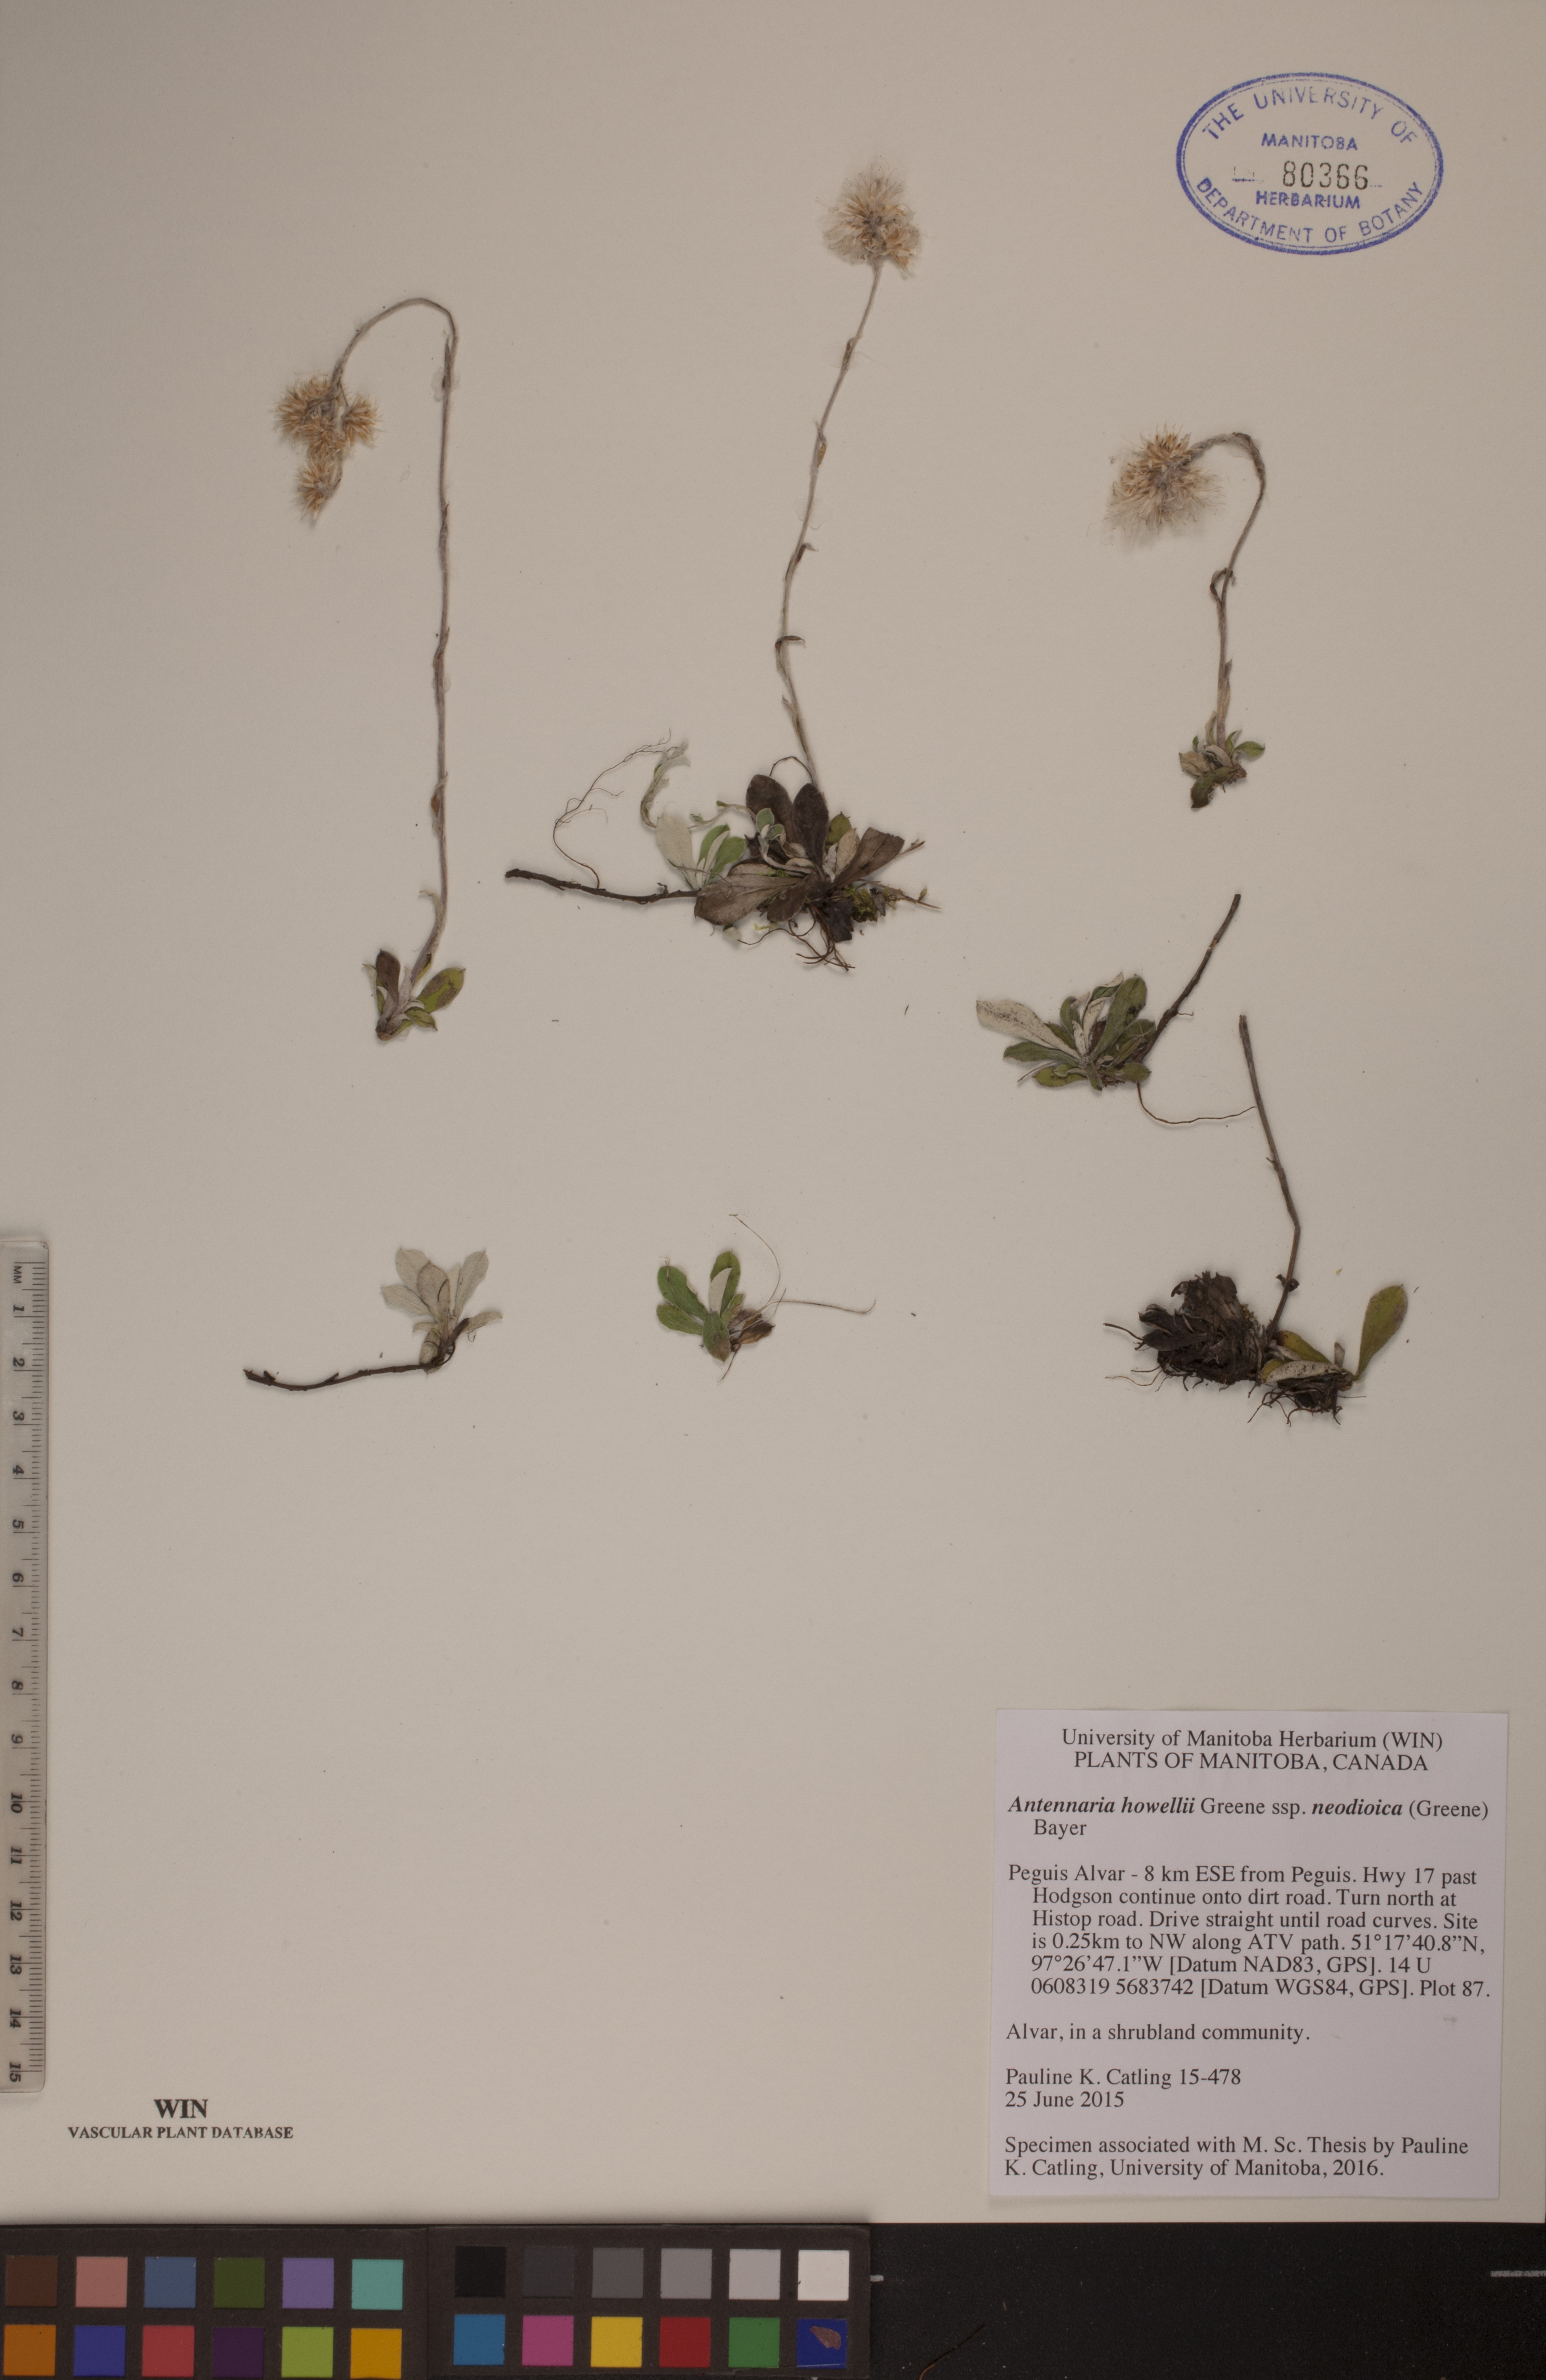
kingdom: Plantae
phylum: Tracheophyta
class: Magnoliopsida
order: Asterales
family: Asteraceae
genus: Antennaria
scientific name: Antennaria howellii
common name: Howell's pussytoes
